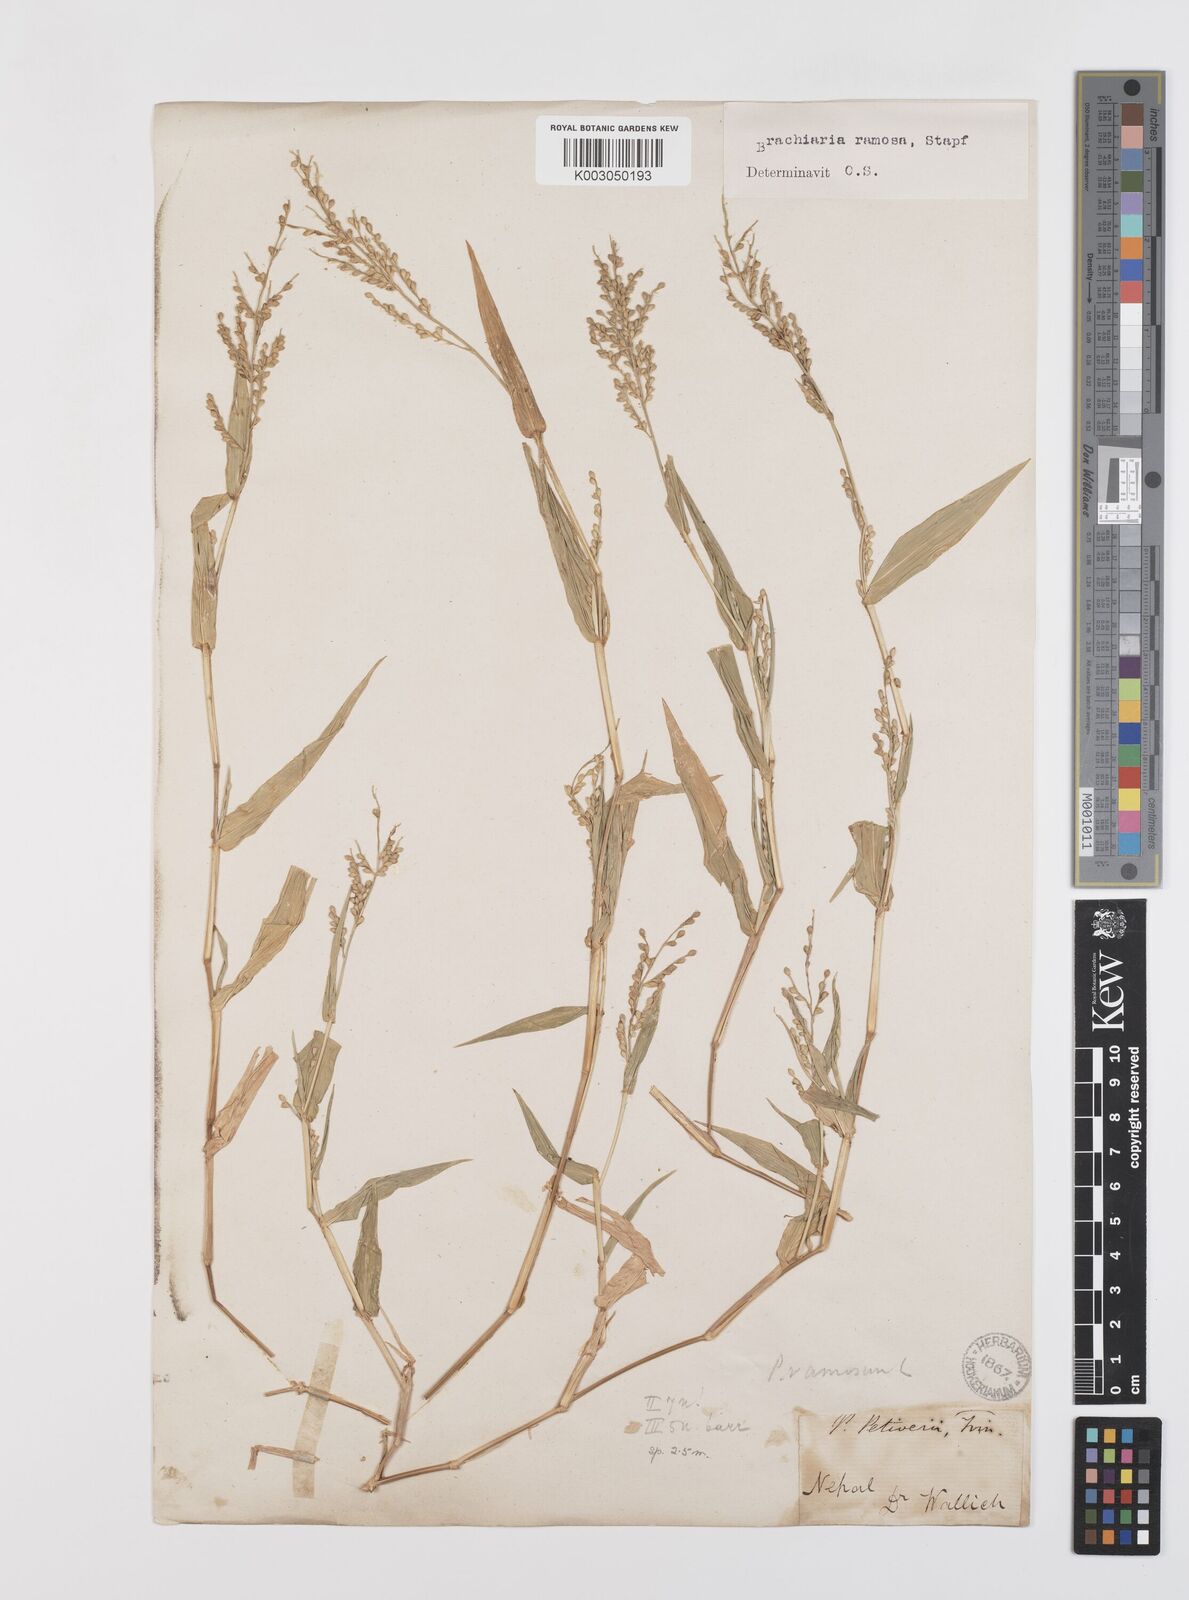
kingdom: Plantae
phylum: Tracheophyta
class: Liliopsida
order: Poales
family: Poaceae
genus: Urochloa
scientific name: Urochloa ramosa
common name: Browntop millet
